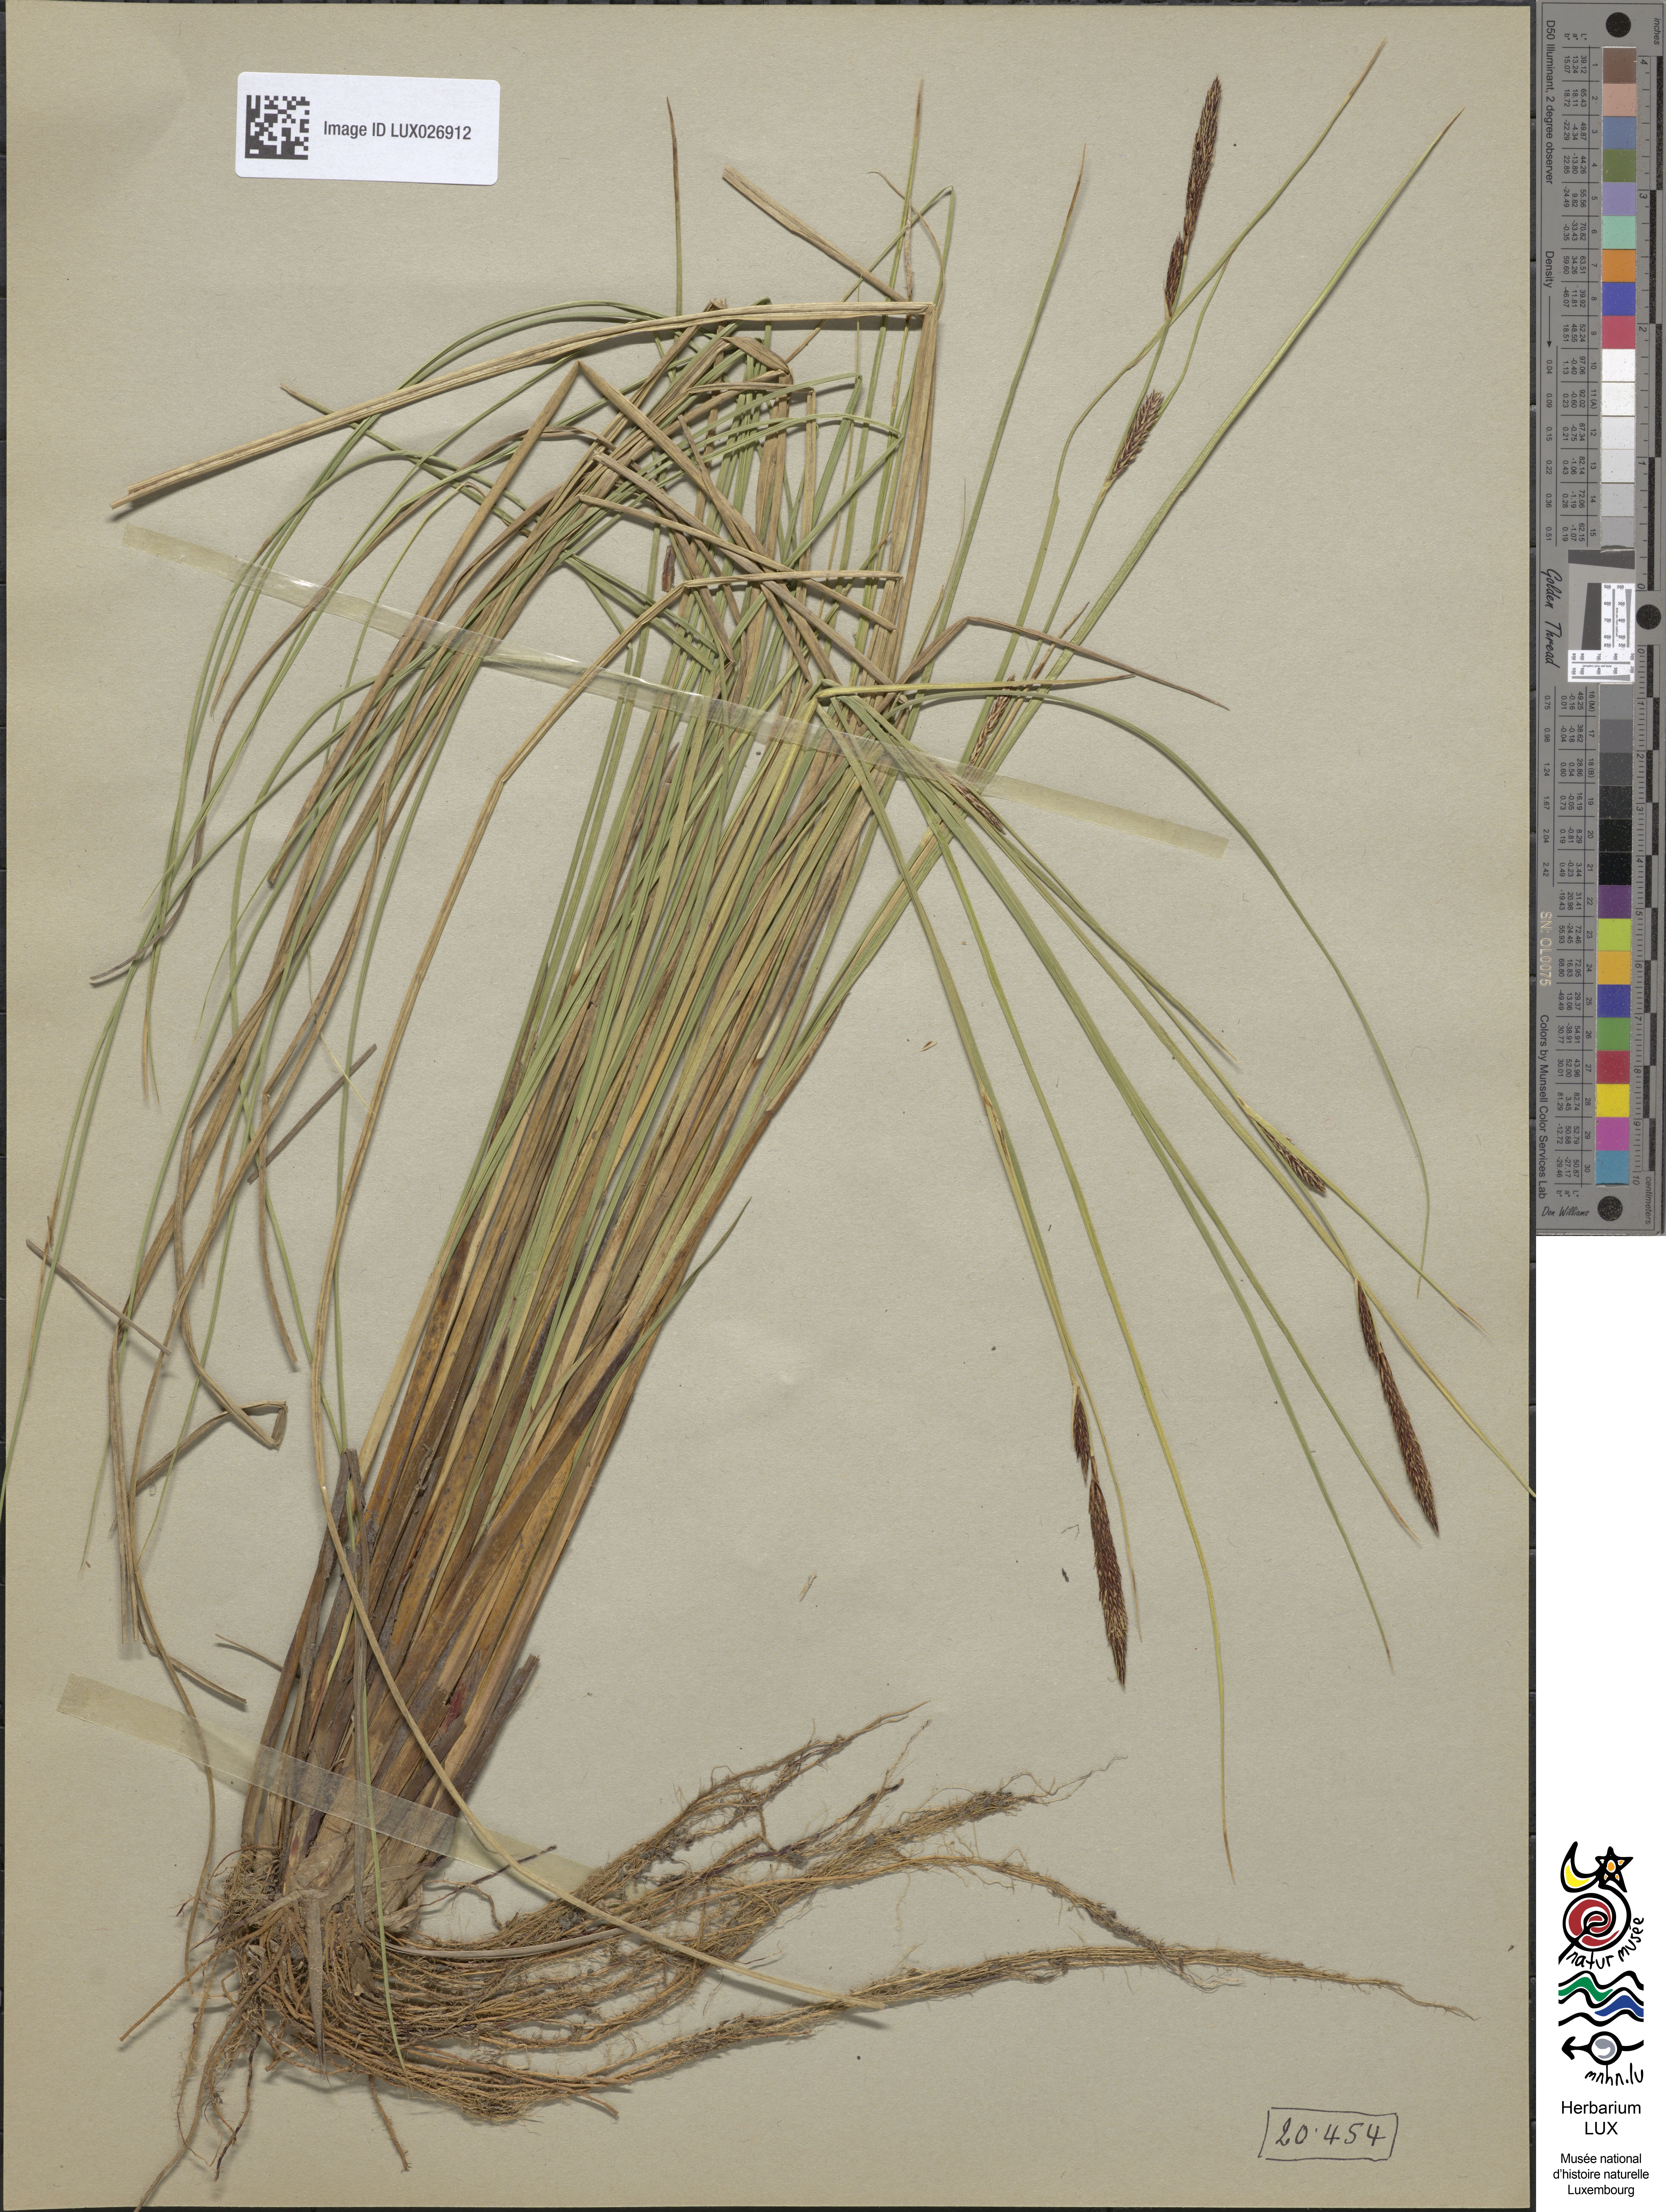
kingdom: Plantae
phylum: Tracheophyta
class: Liliopsida
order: Poales
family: Cyperaceae
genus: Carex
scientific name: Carex lasiocarpa
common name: Slender sedge
